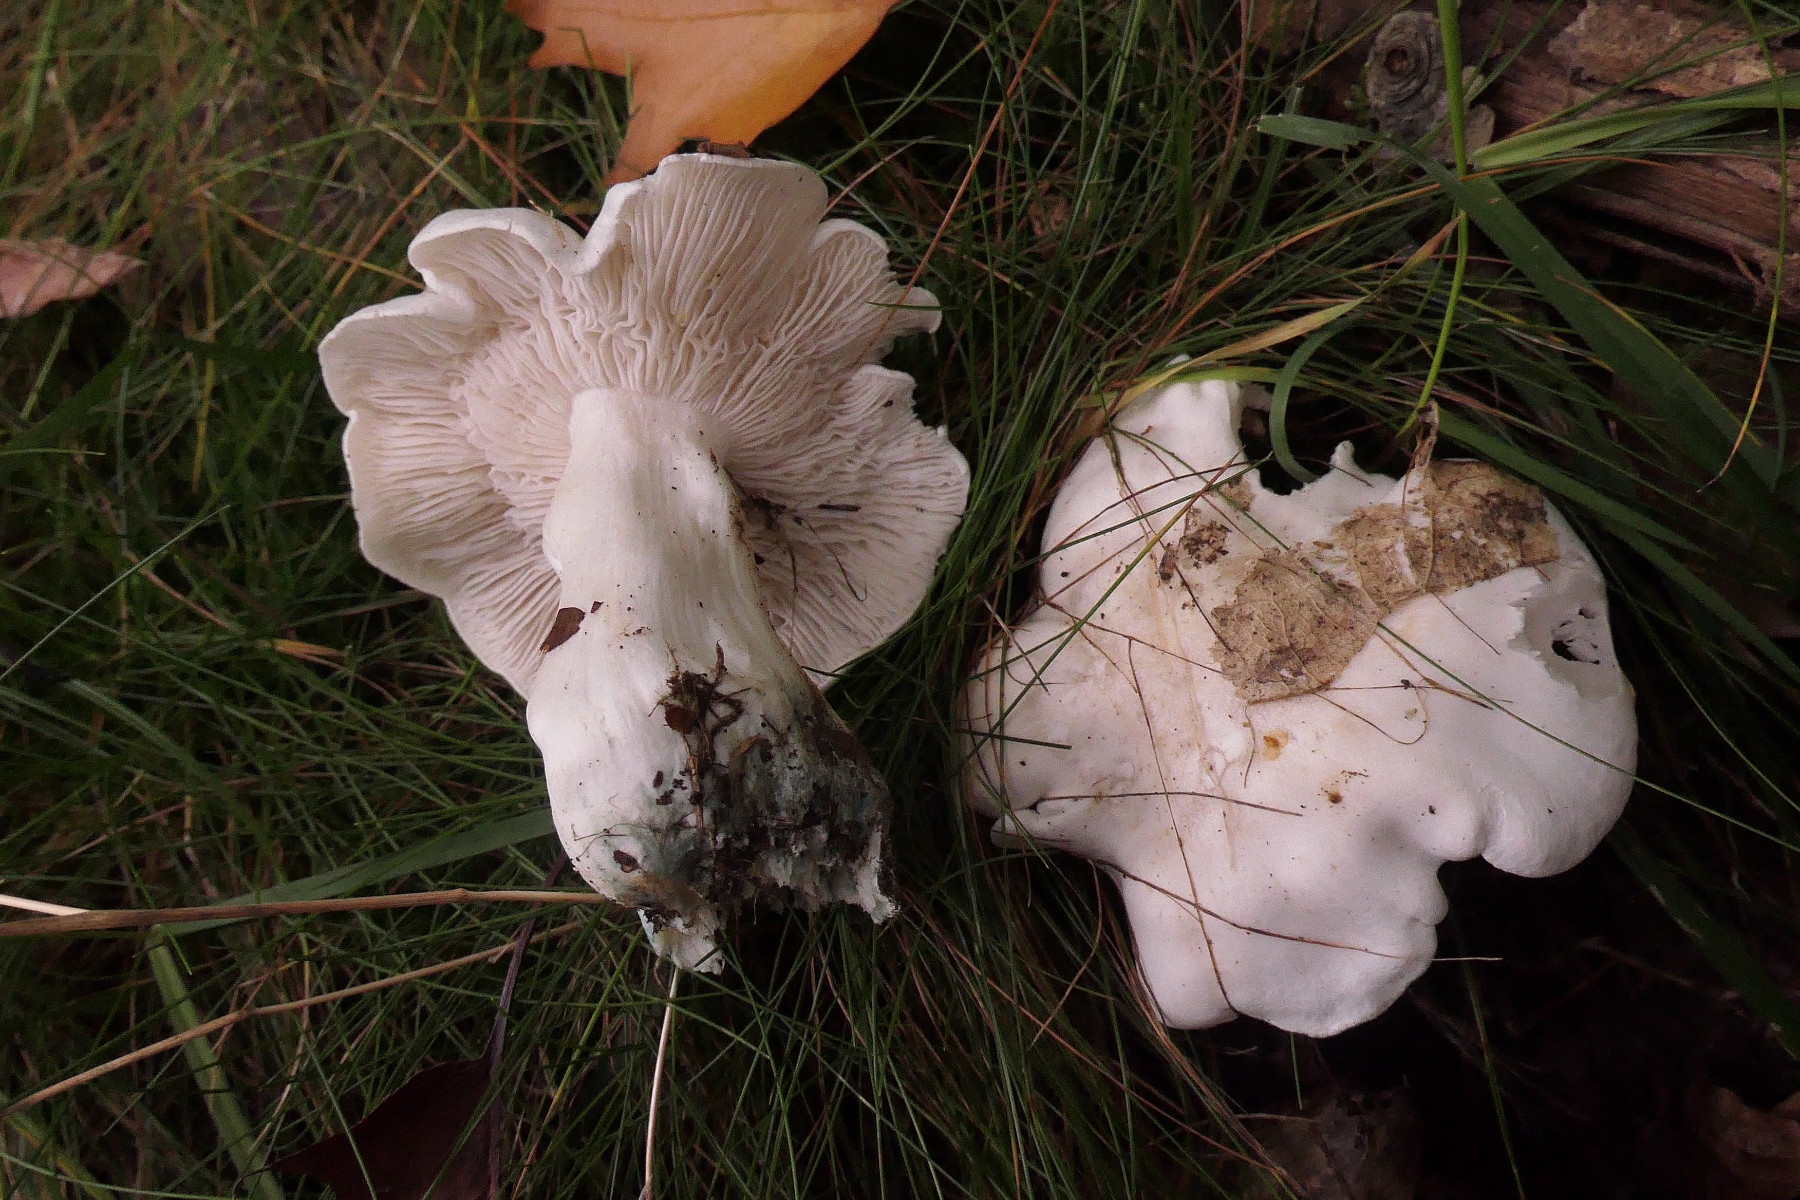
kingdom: Fungi
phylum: Basidiomycota
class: Agaricomycetes
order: Agaricales
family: Tricholomataceae
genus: Tricholoma
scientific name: Tricholoma columbetta
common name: silke-ridderhat
